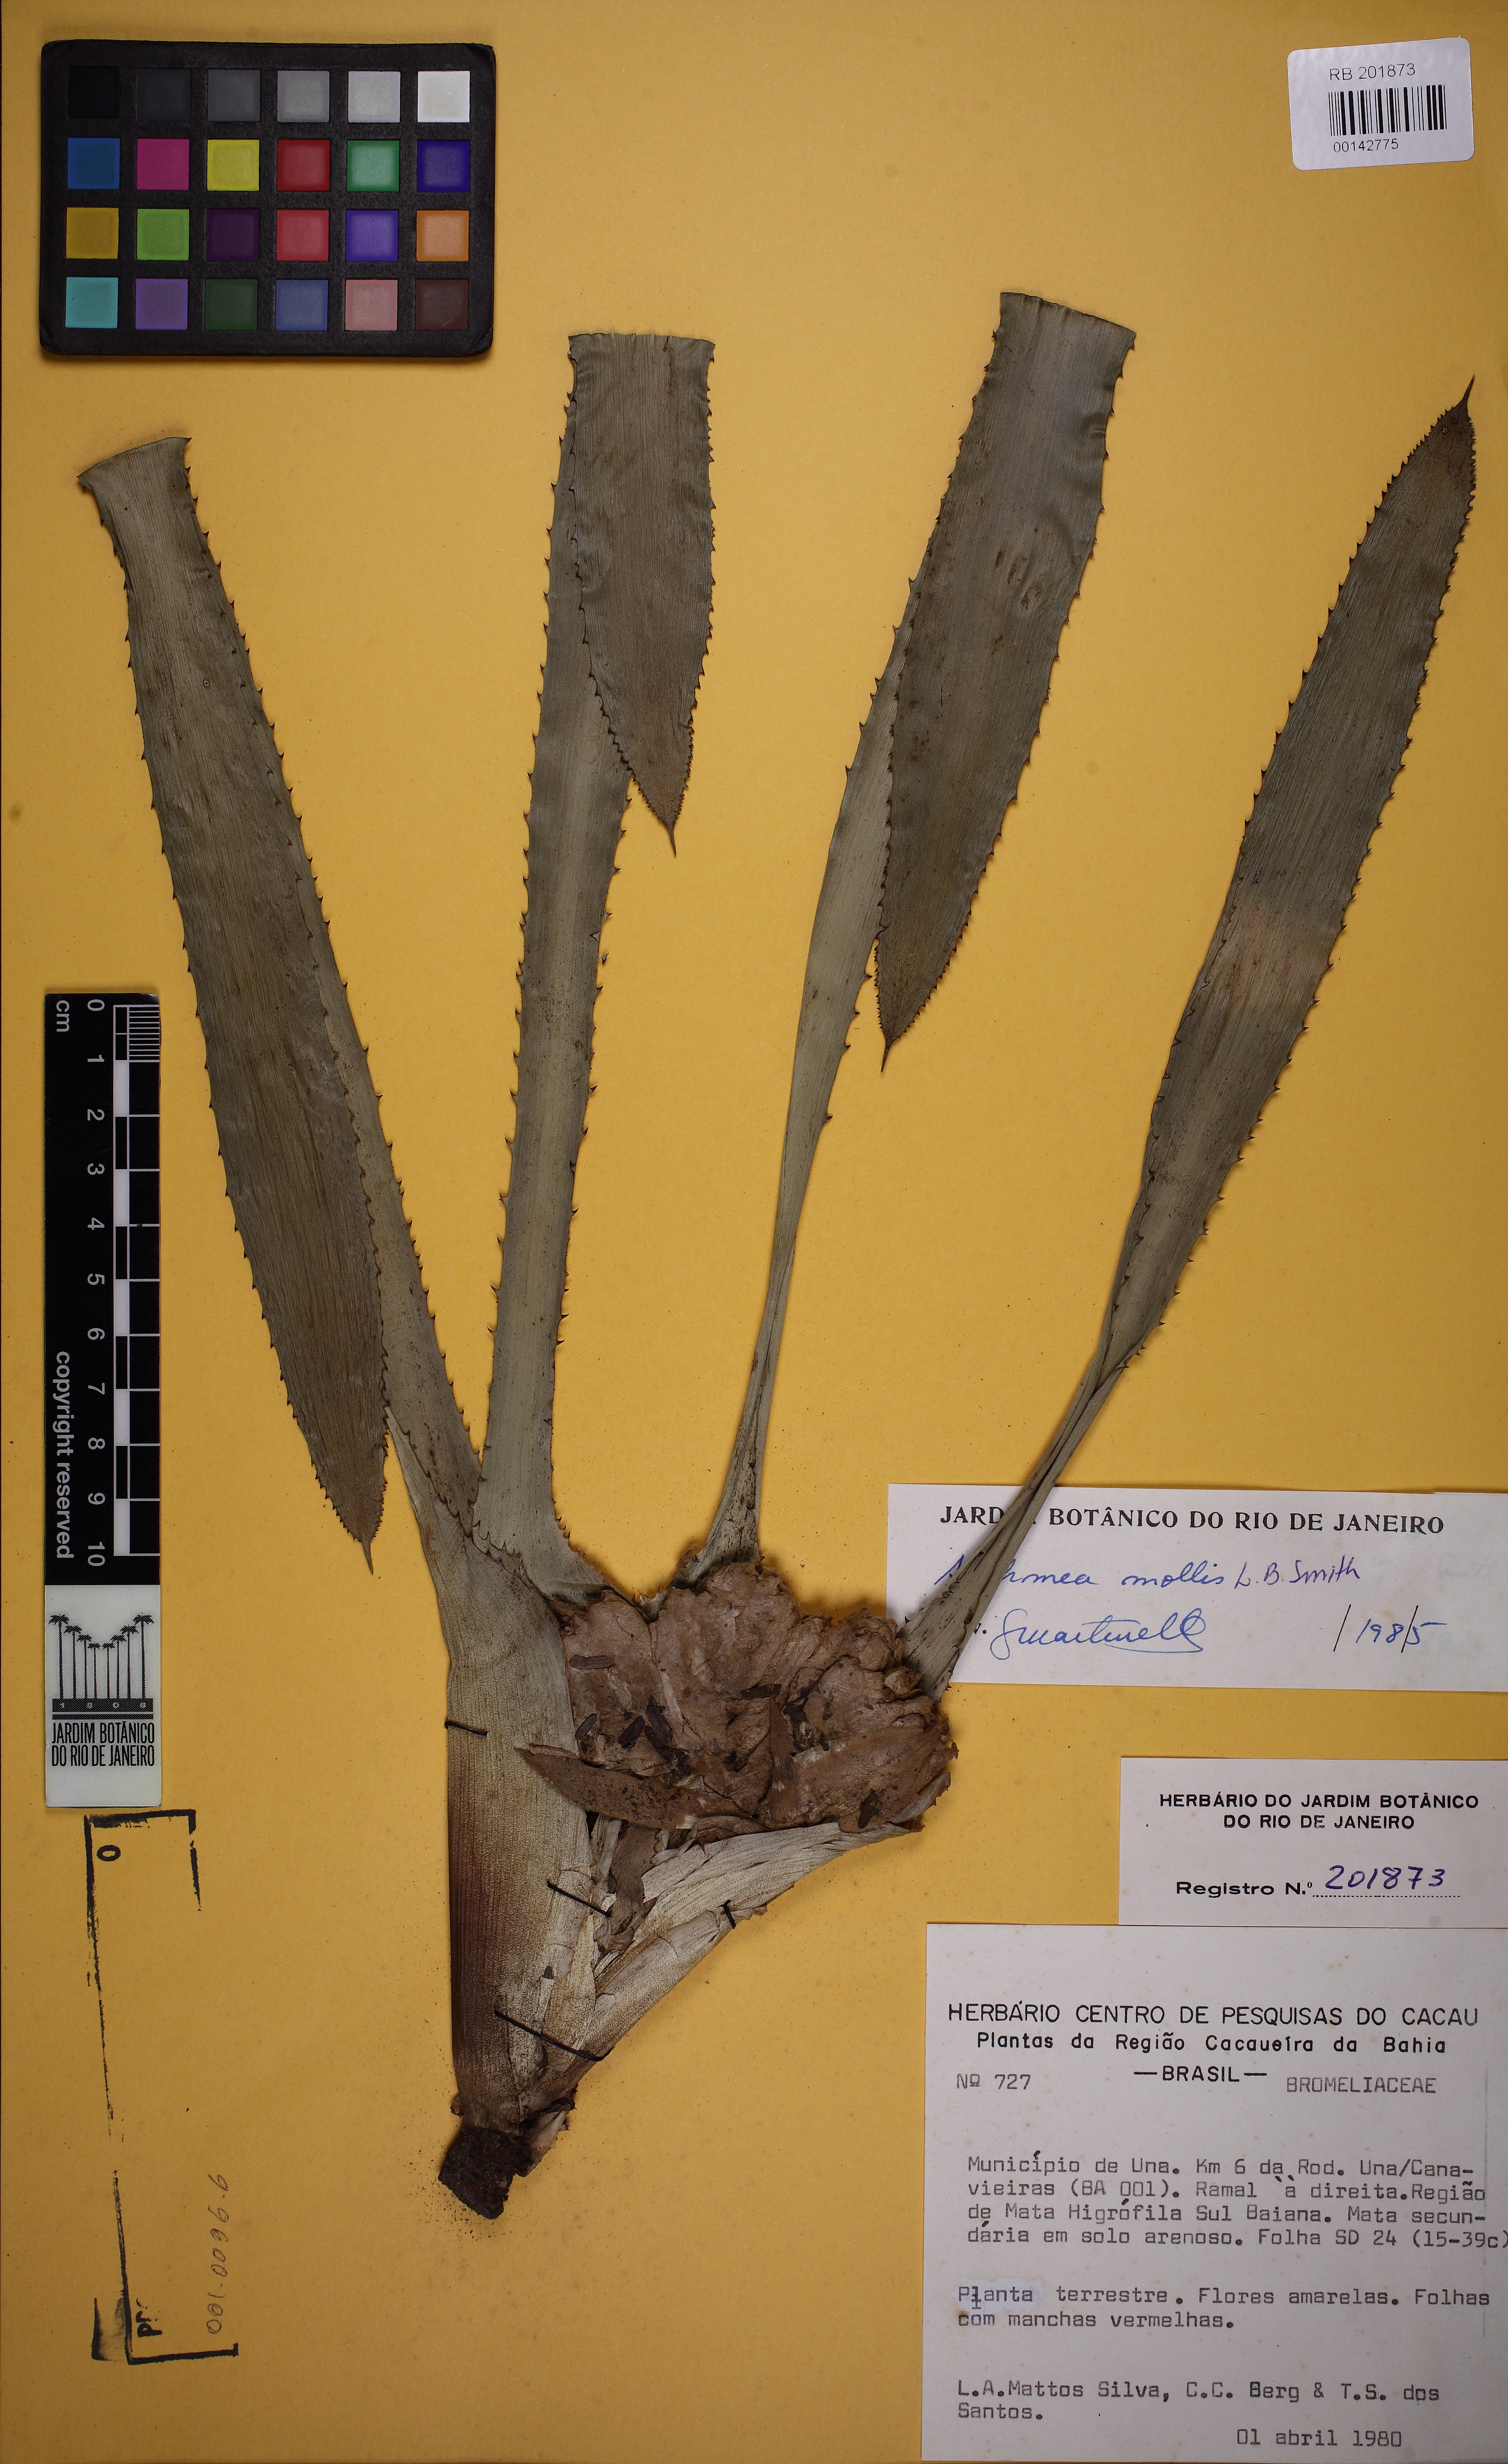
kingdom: Plantae
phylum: Tracheophyta
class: Liliopsida
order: Poales
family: Bromeliaceae
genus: Aechmea
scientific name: Aechmea mollis
